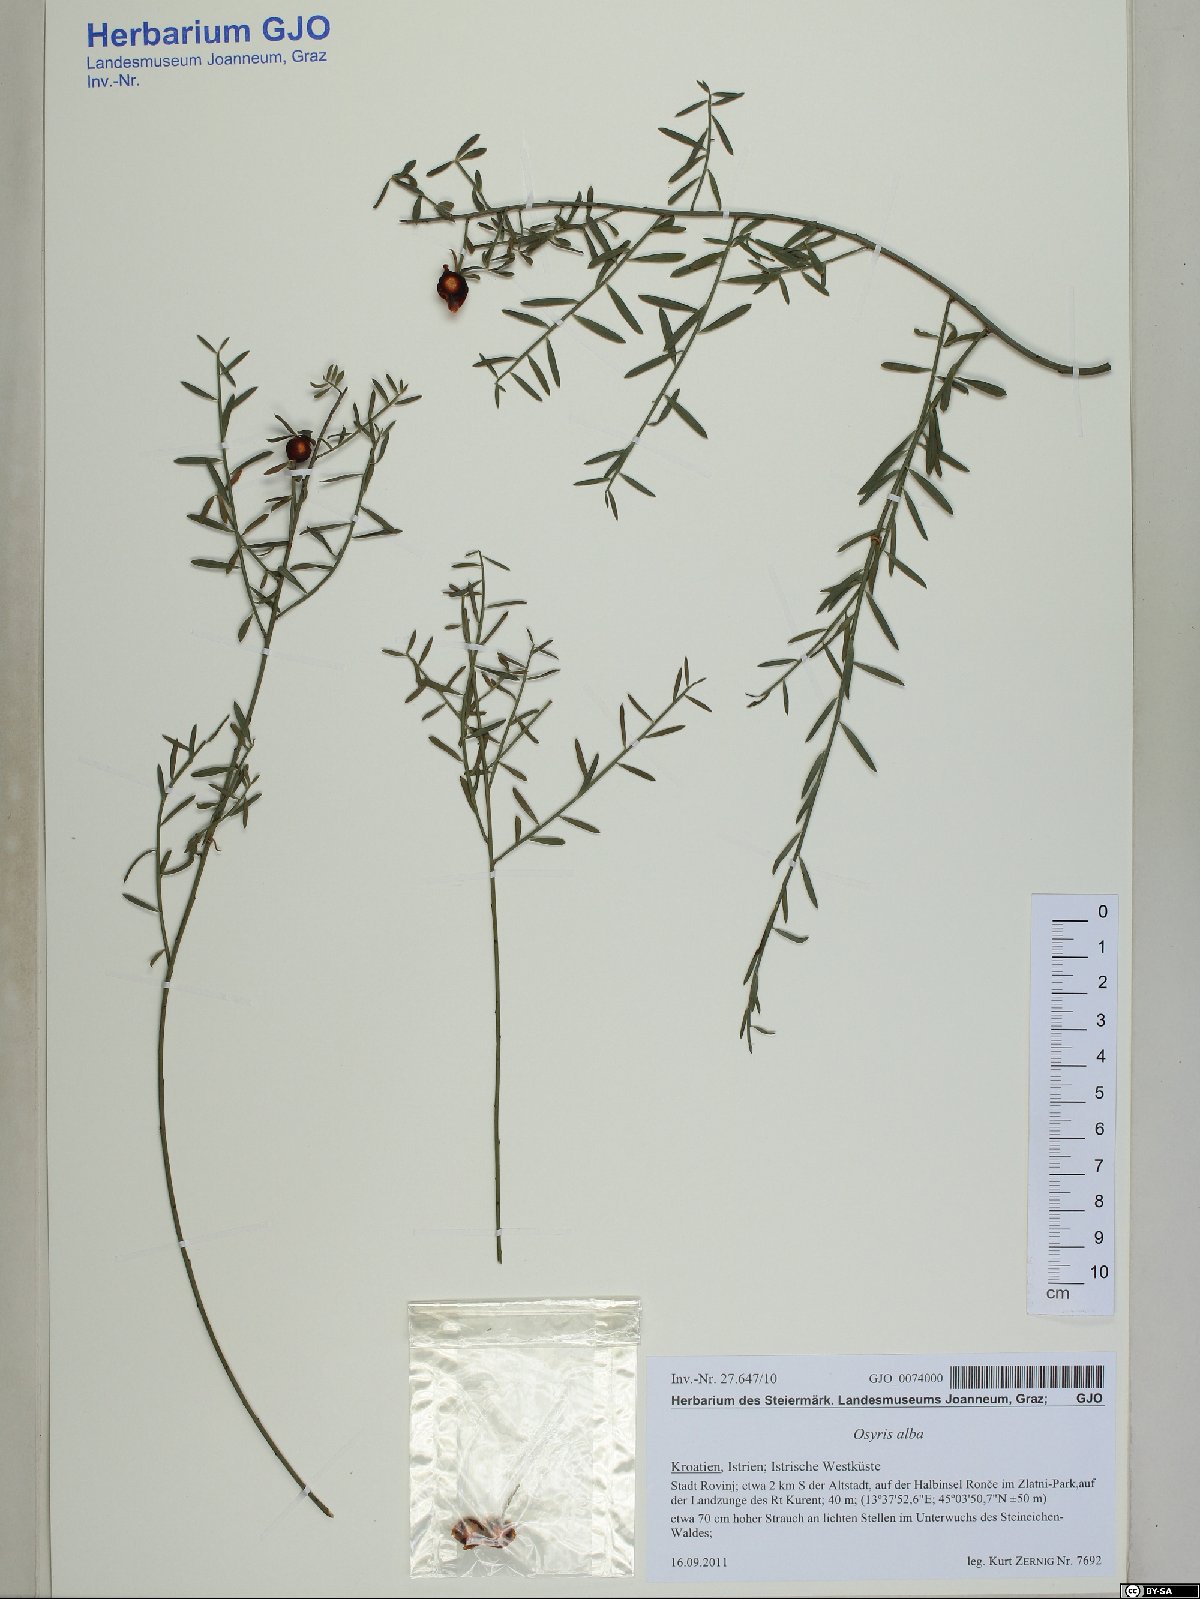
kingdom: Plantae
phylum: Tracheophyta
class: Magnoliopsida
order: Santalales
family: Santalaceae
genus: Osyris
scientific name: Osyris alba
